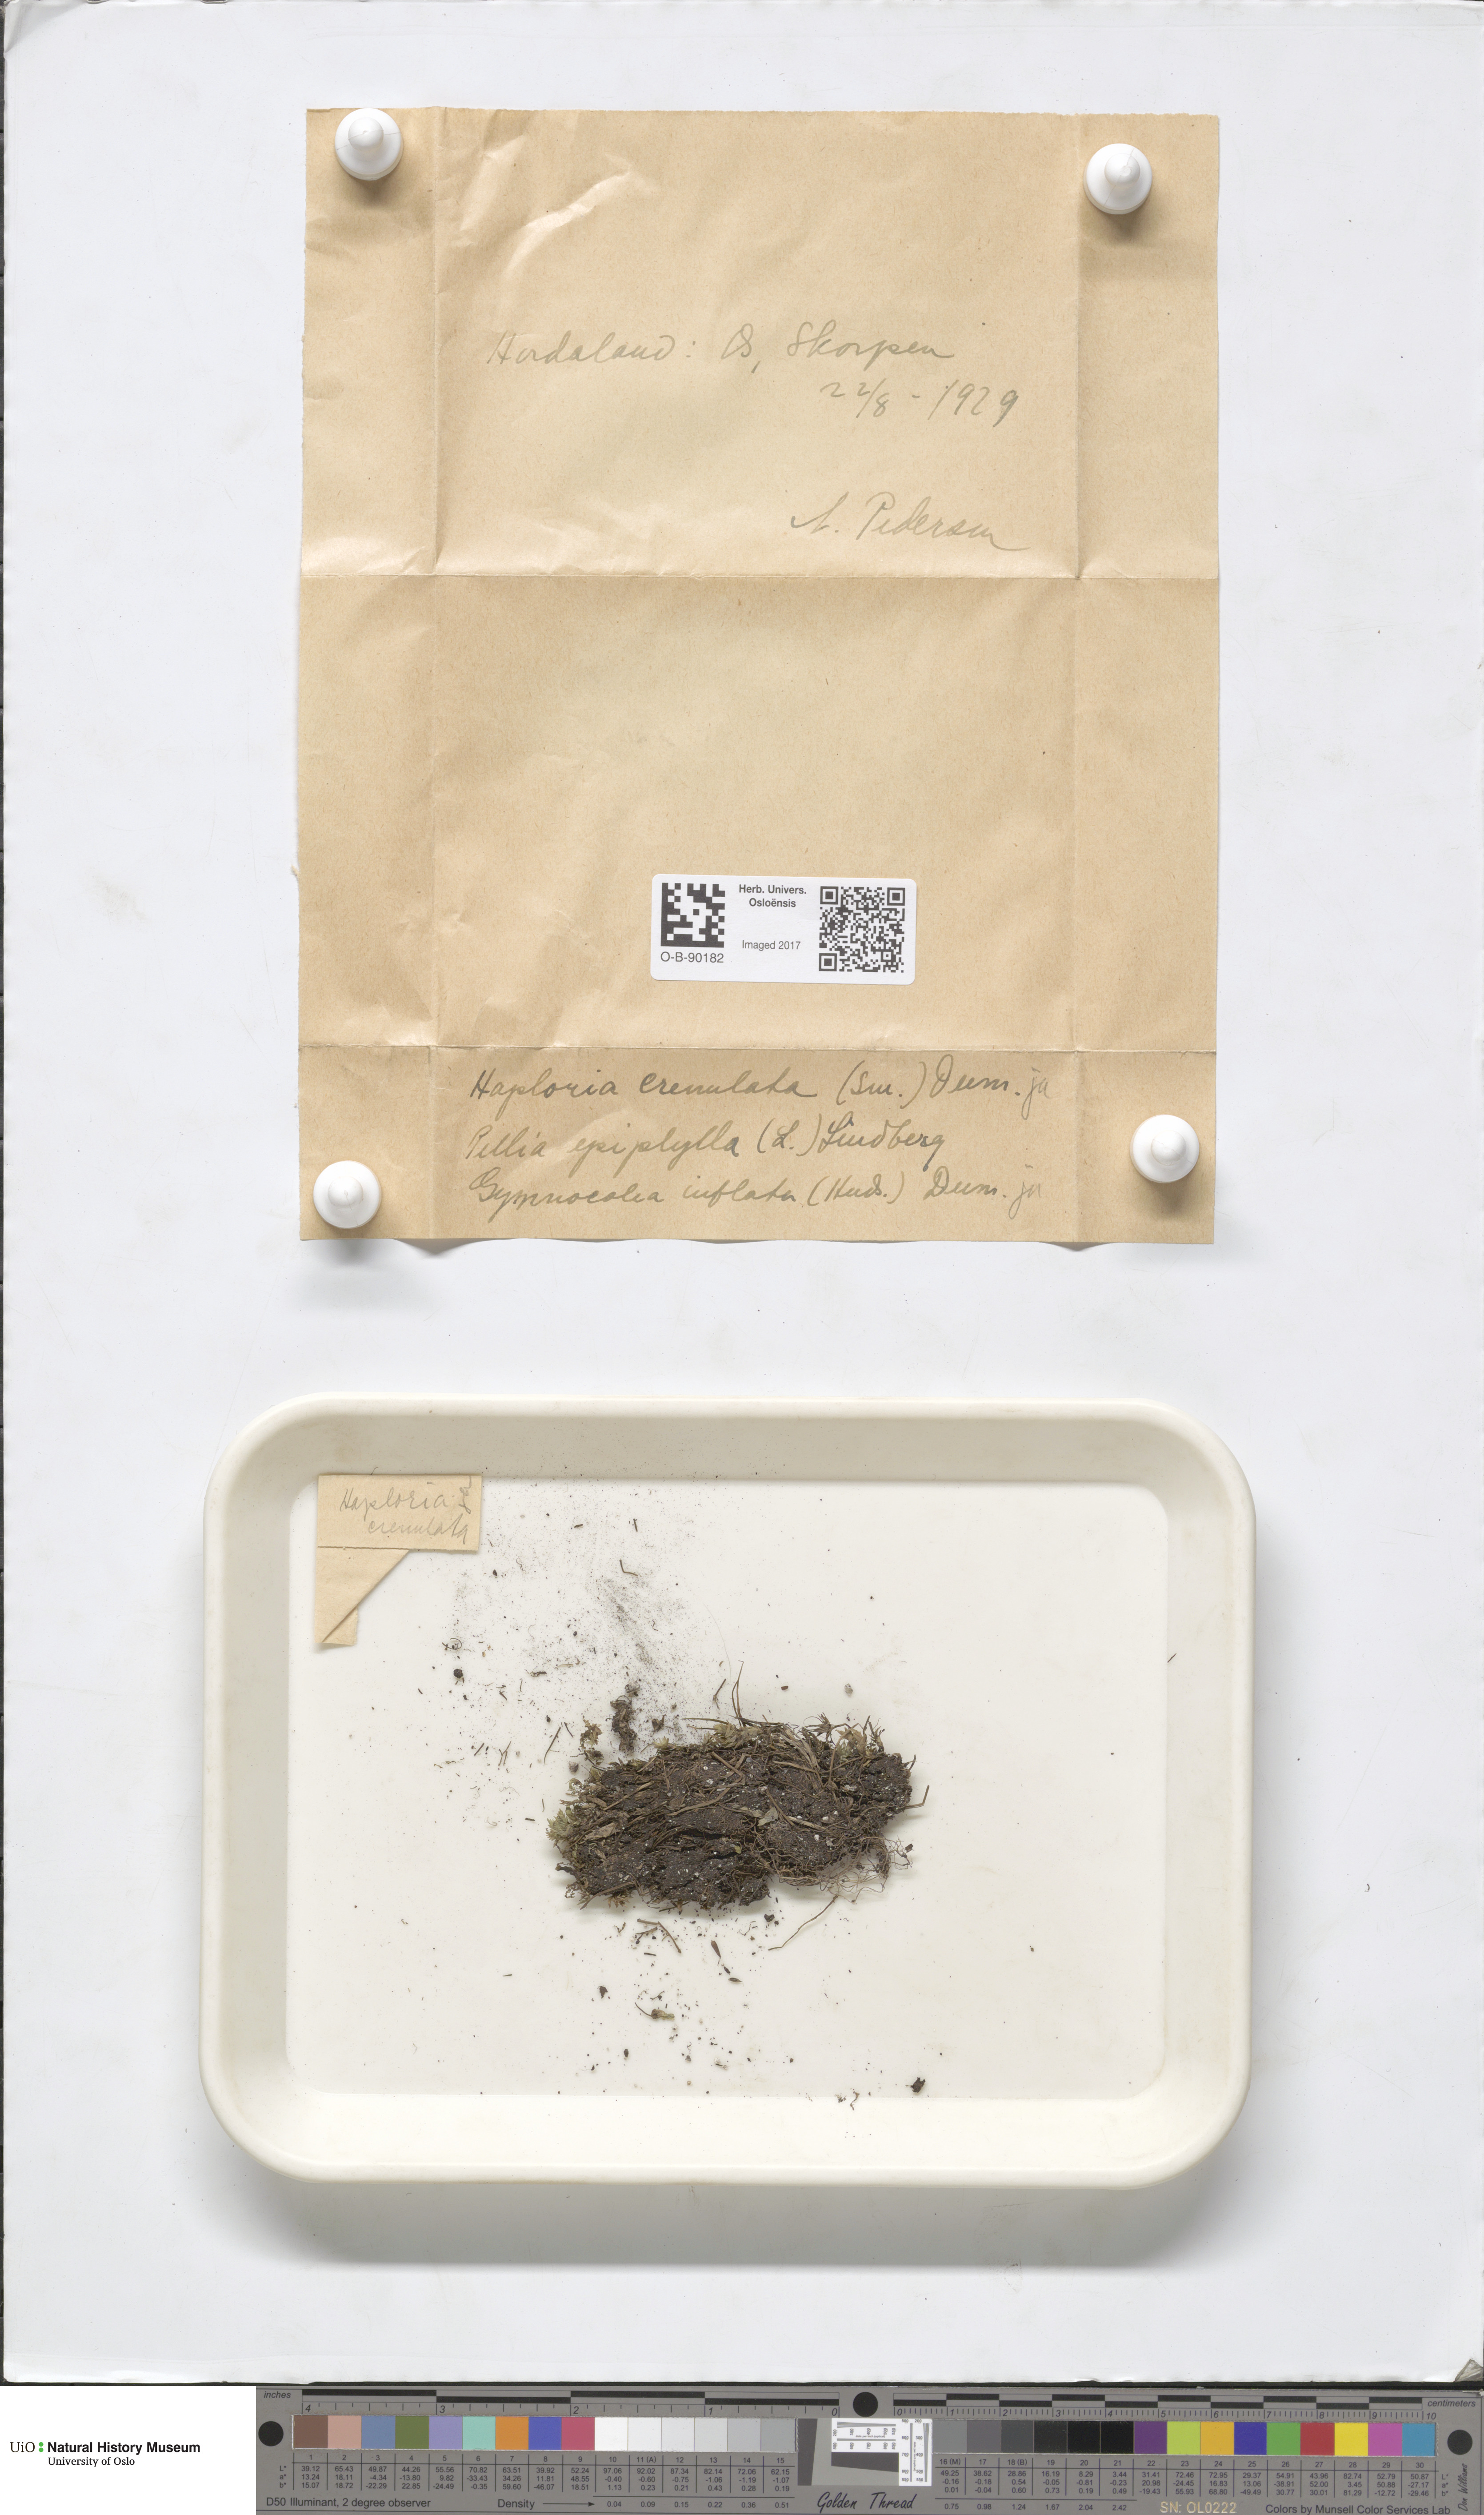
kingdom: Plantae
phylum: Marchantiophyta
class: Jungermanniopsida
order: Jungermanniales
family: Solenostomataceae
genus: Solenostoma
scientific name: Solenostoma gracillimum
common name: Crenulated flapwort
